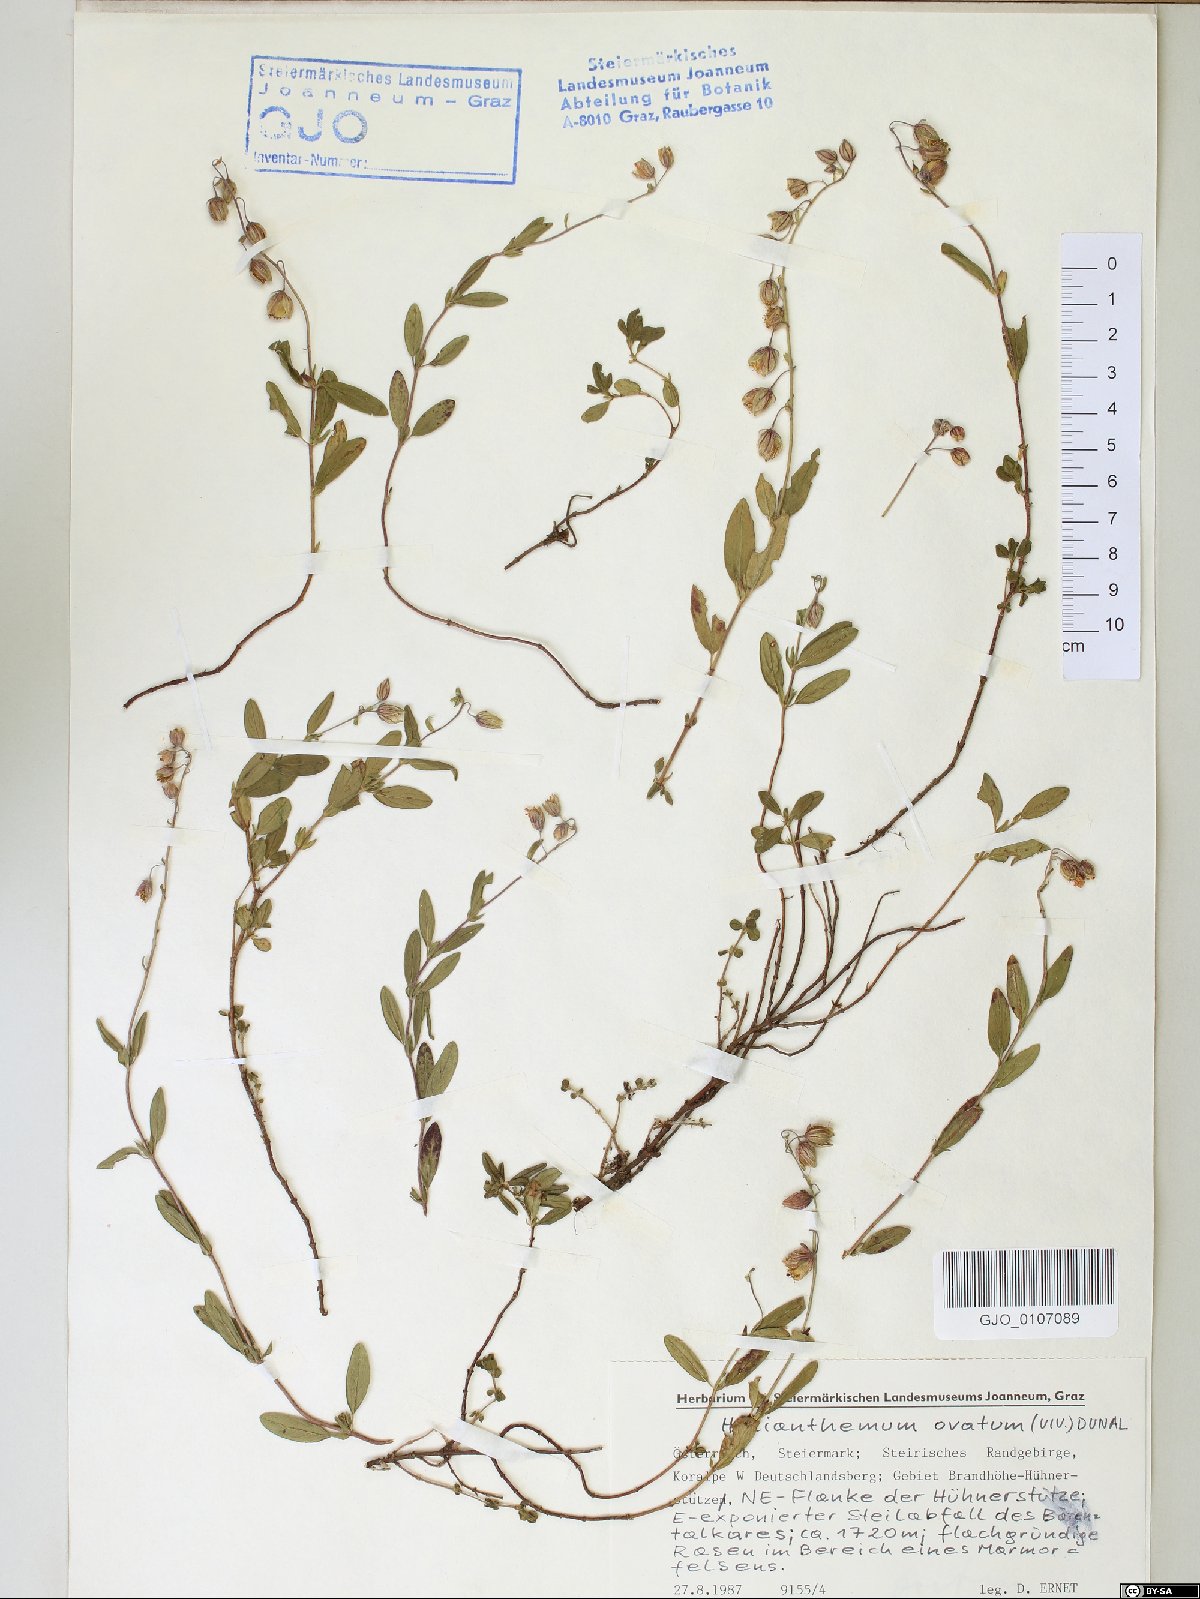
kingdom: Plantae
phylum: Tracheophyta
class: Magnoliopsida
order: Malvales
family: Cistaceae
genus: Helianthemum
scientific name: Helianthemum nummularium
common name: Common rock-rose
